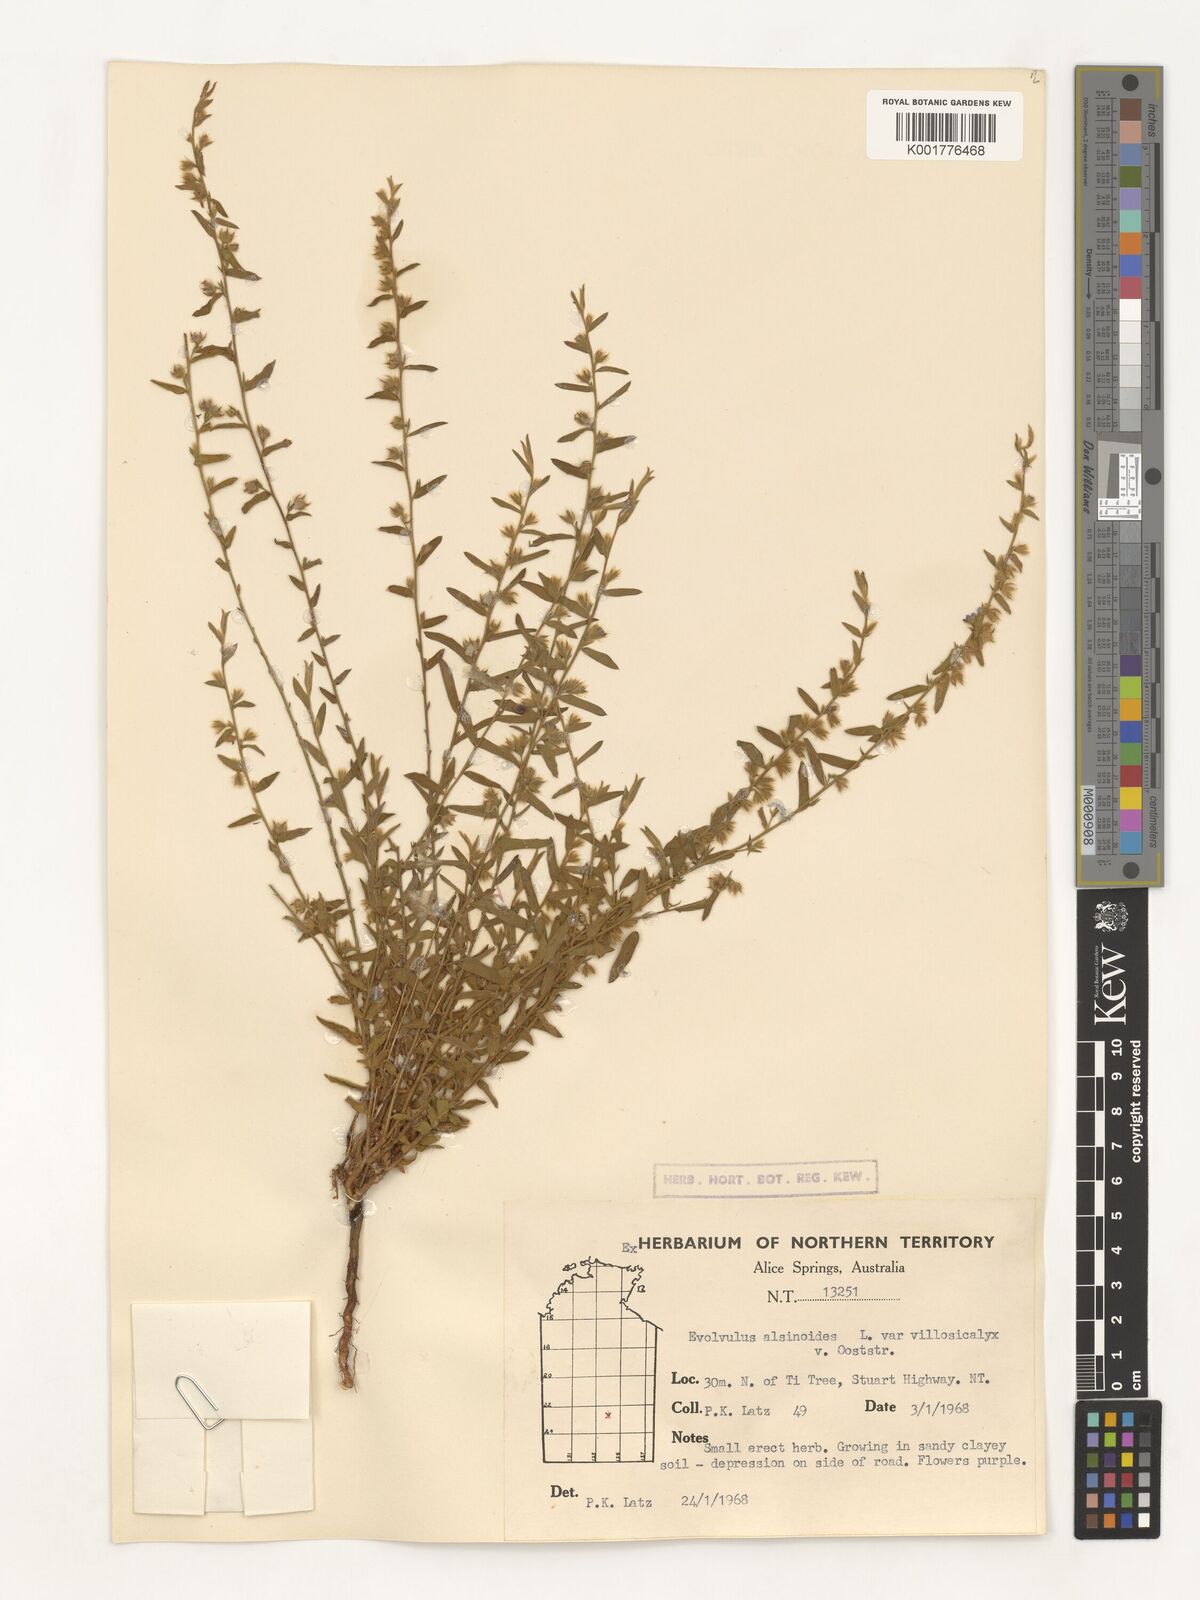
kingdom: Plantae
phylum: Tracheophyta
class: Magnoliopsida
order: Solanales
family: Convolvulaceae
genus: Evolvulus
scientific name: Evolvulus alsinoides
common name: Slender dwarf morning-glory
